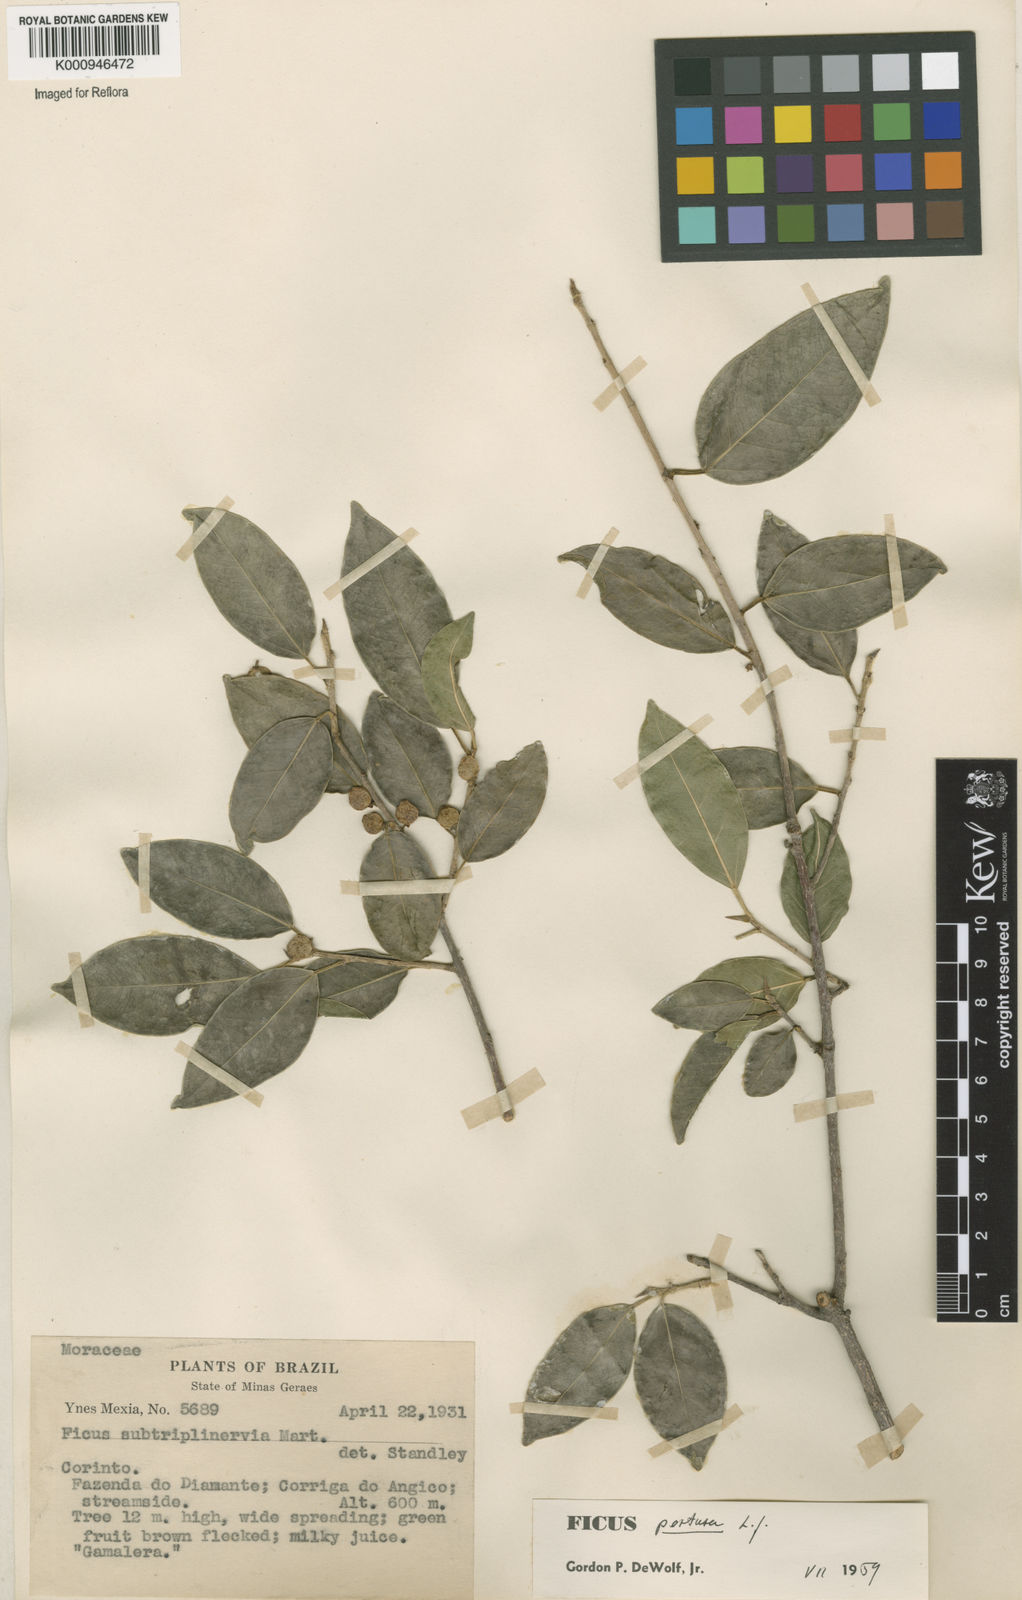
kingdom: Plantae
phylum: Tracheophyta
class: Magnoliopsida
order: Rosales
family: Moraceae
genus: Ficus
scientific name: Ficus pertusa
